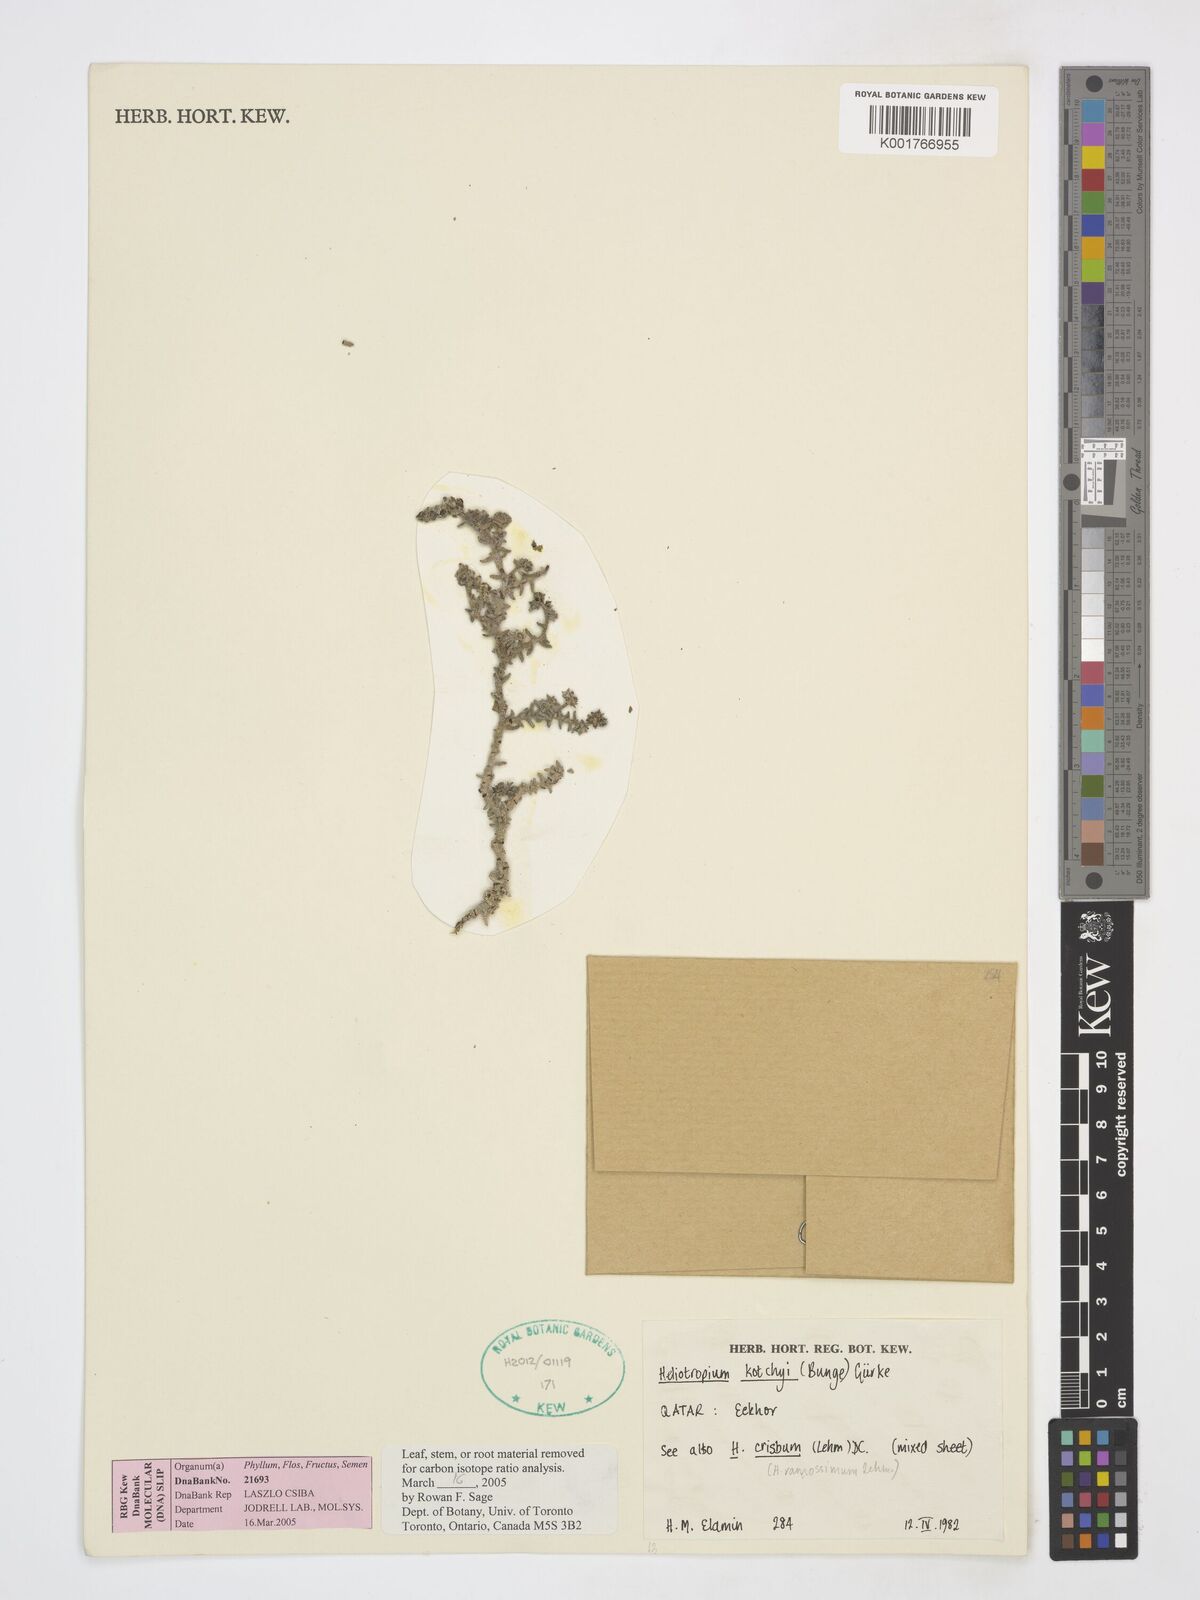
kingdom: Plantae
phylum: Tracheophyta
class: Magnoliopsida
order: Boraginales
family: Heliotropiaceae
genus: Heliotropium
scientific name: Heliotropium bacciferum
